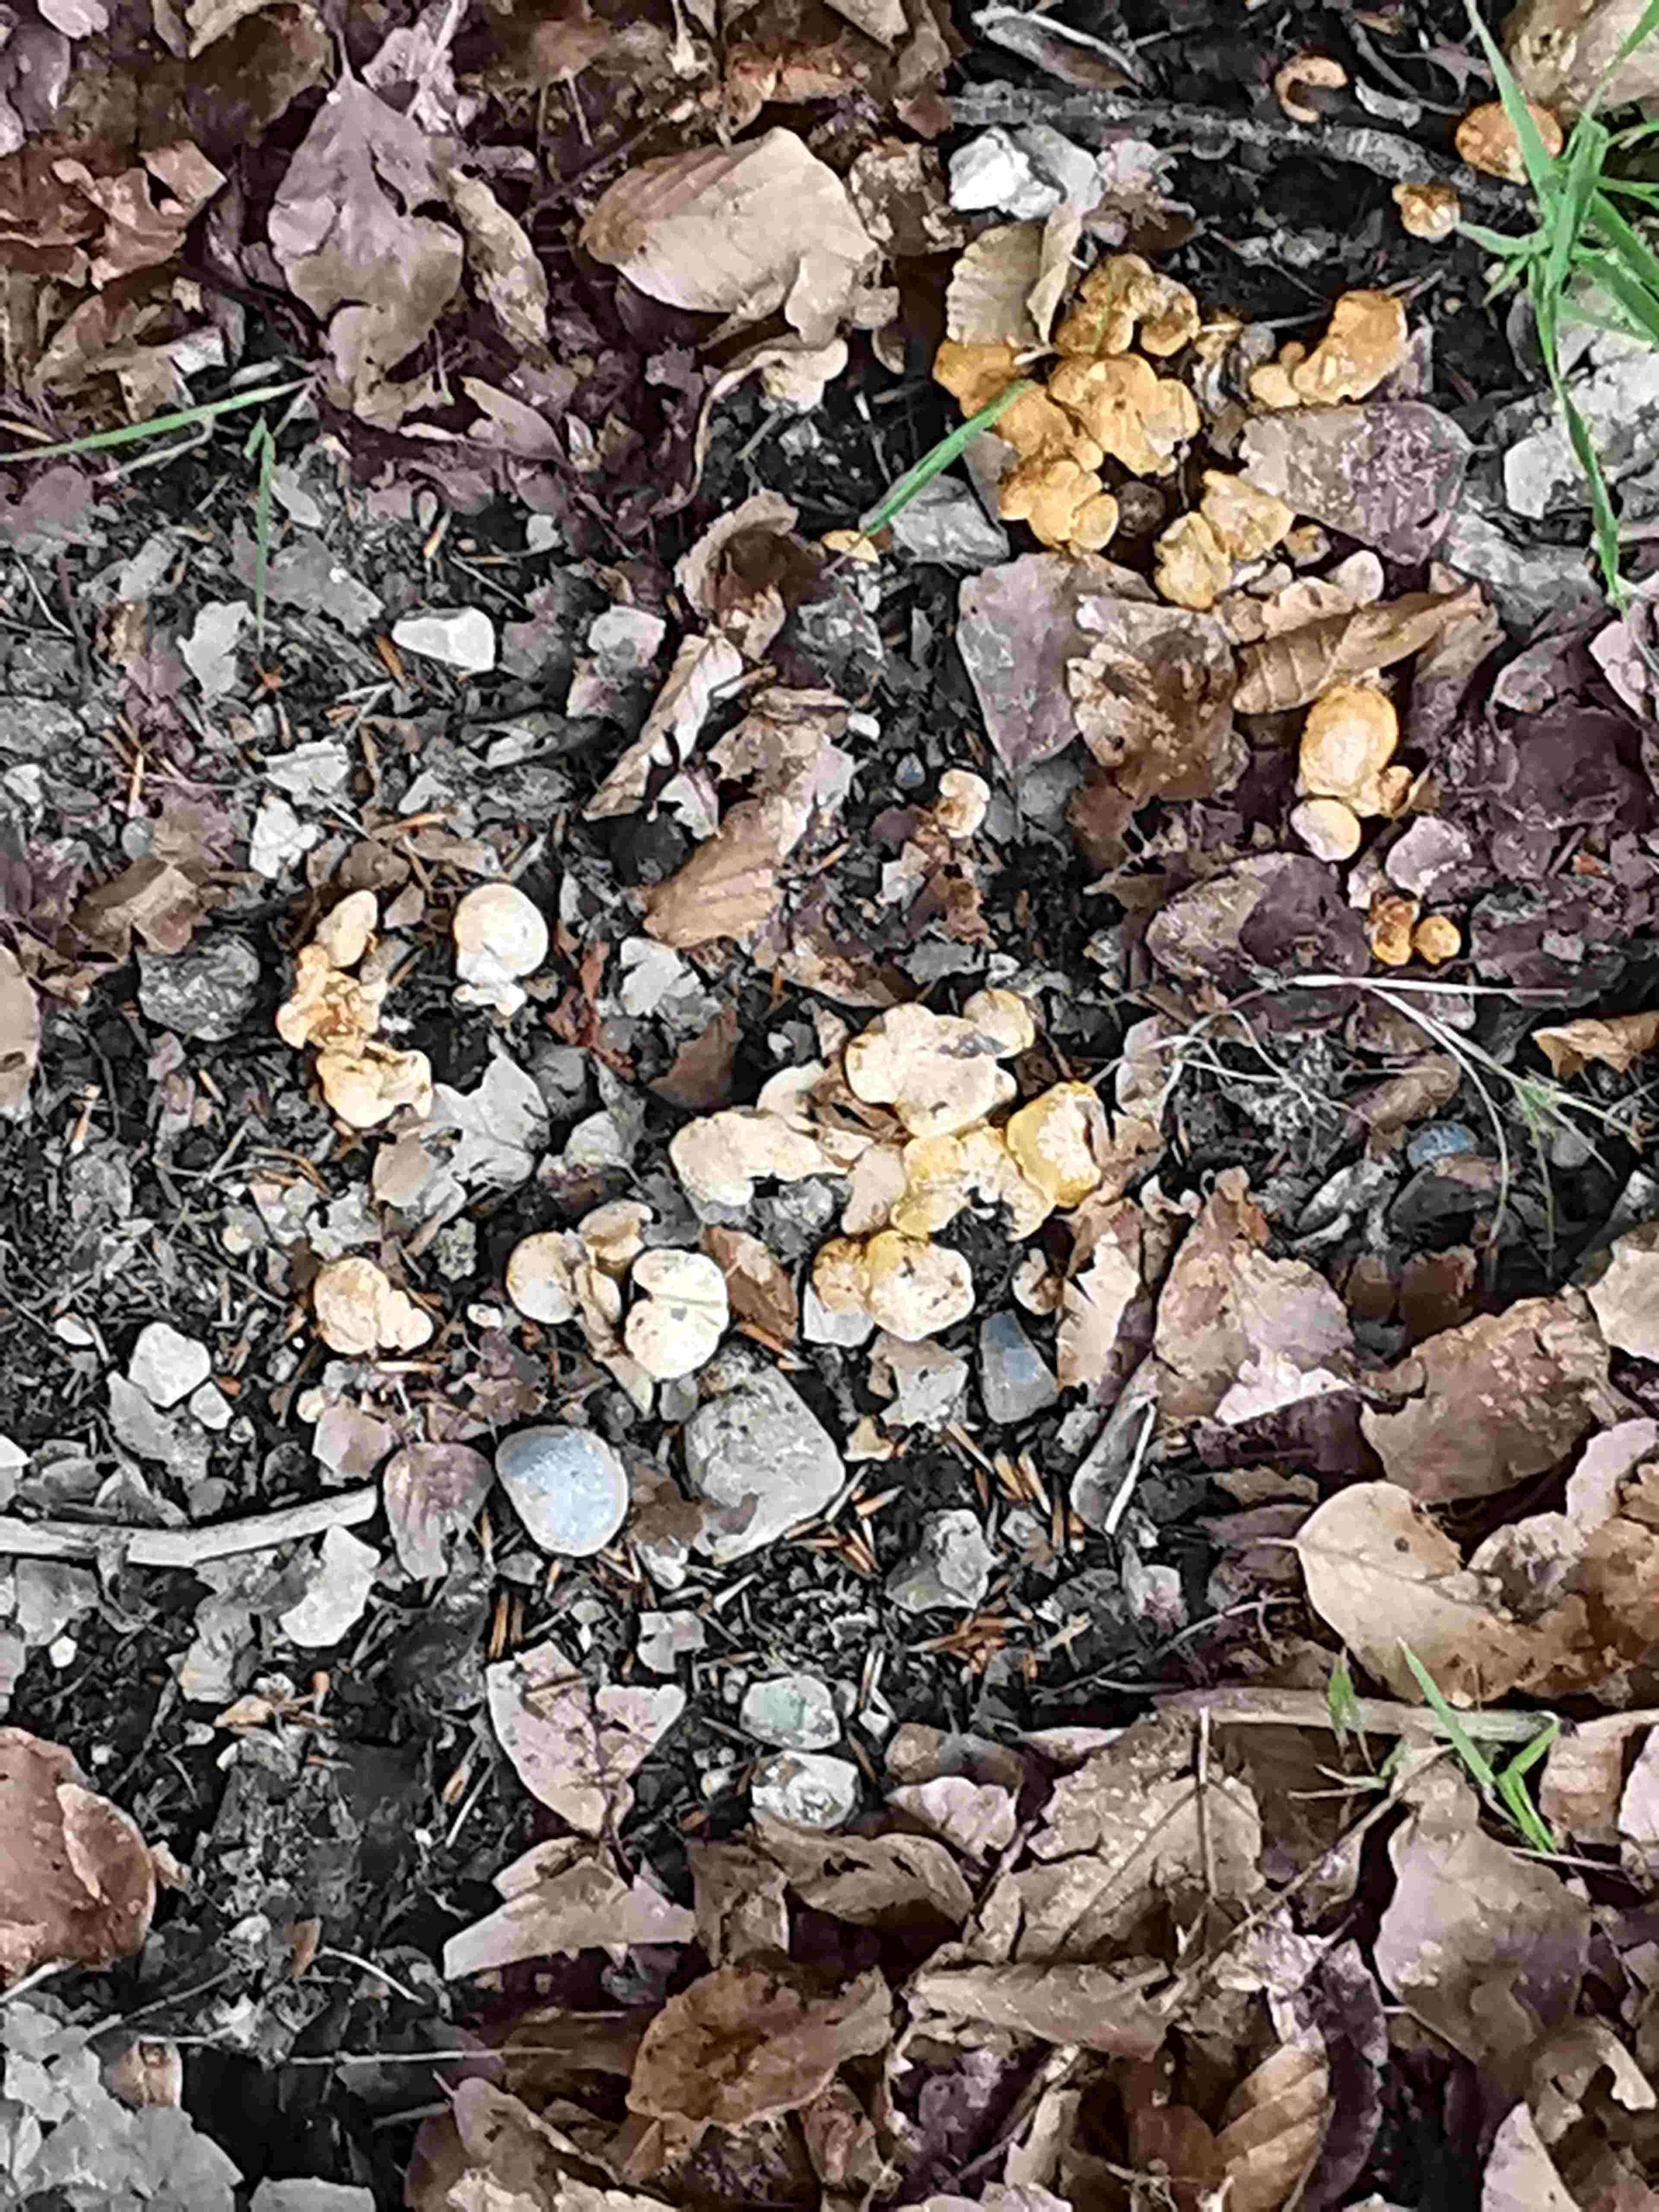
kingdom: Fungi
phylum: Basidiomycota
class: Agaricomycetes
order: Cantharellales
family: Hydnaceae
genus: Cantharellus
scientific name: Cantharellus cibarius
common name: almindelig kantarel
